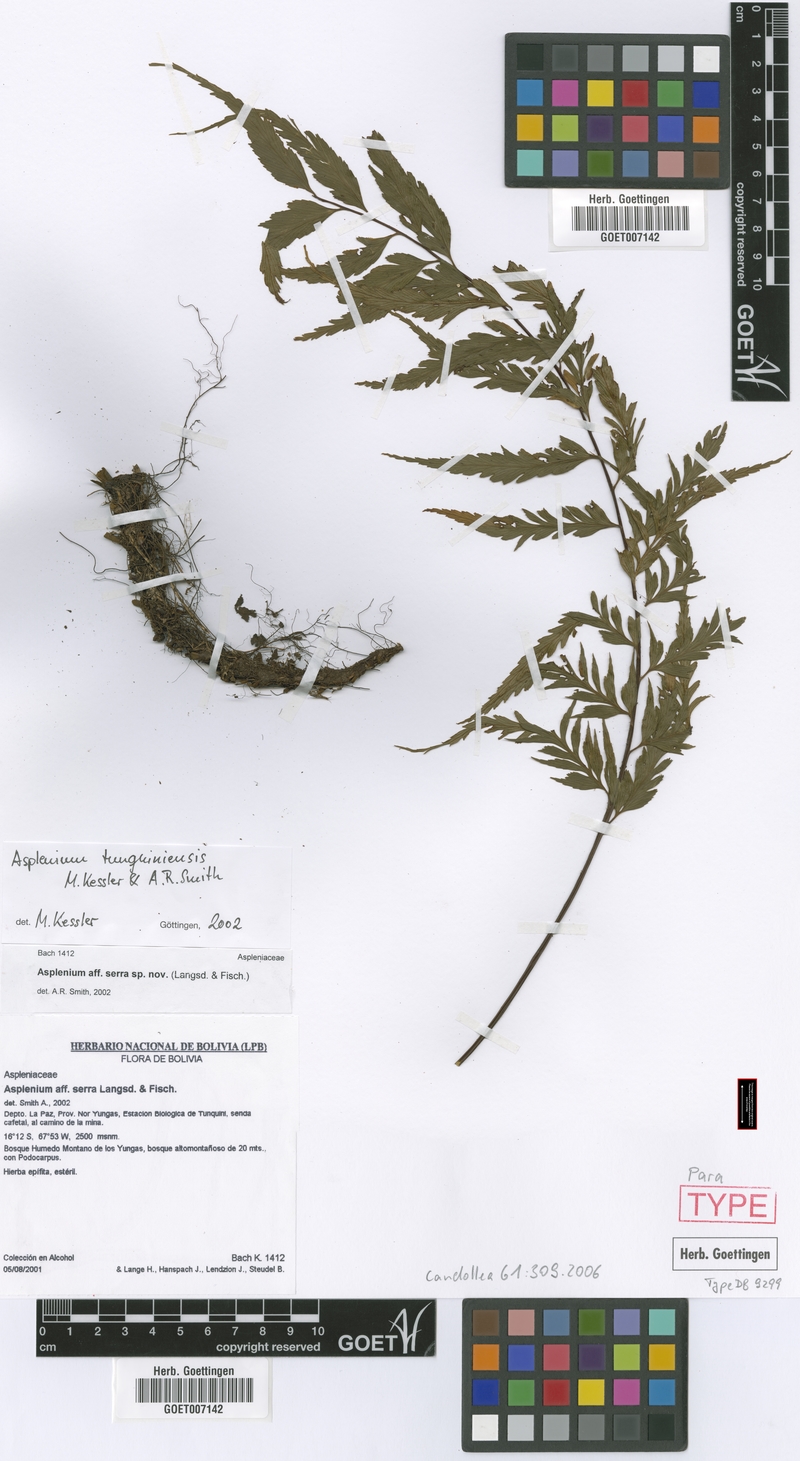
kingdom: Plantae
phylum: Tracheophyta
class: Polypodiopsida
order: Polypodiales
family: Aspleniaceae
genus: Asplenium
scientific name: Asplenium tunquiniense
